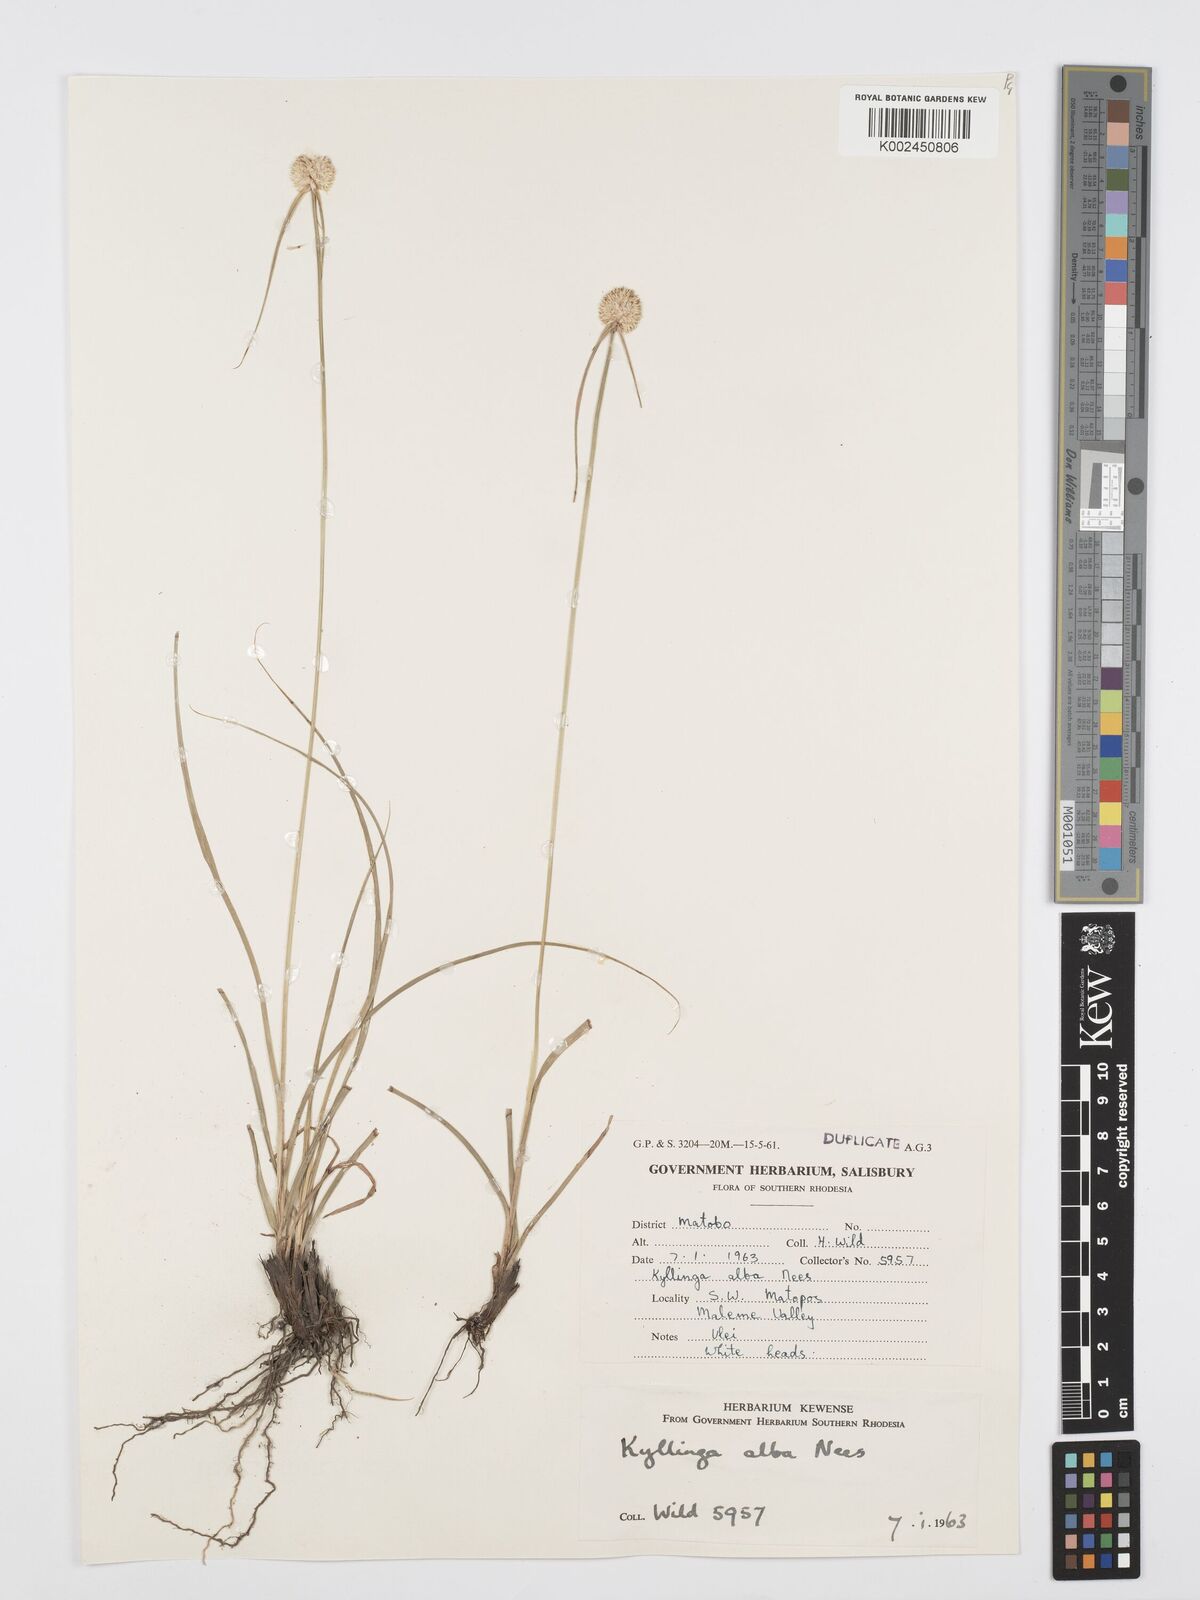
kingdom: Plantae
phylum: Tracheophyta
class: Liliopsida
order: Poales
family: Cyperaceae
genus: Cyperus
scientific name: Cyperus
